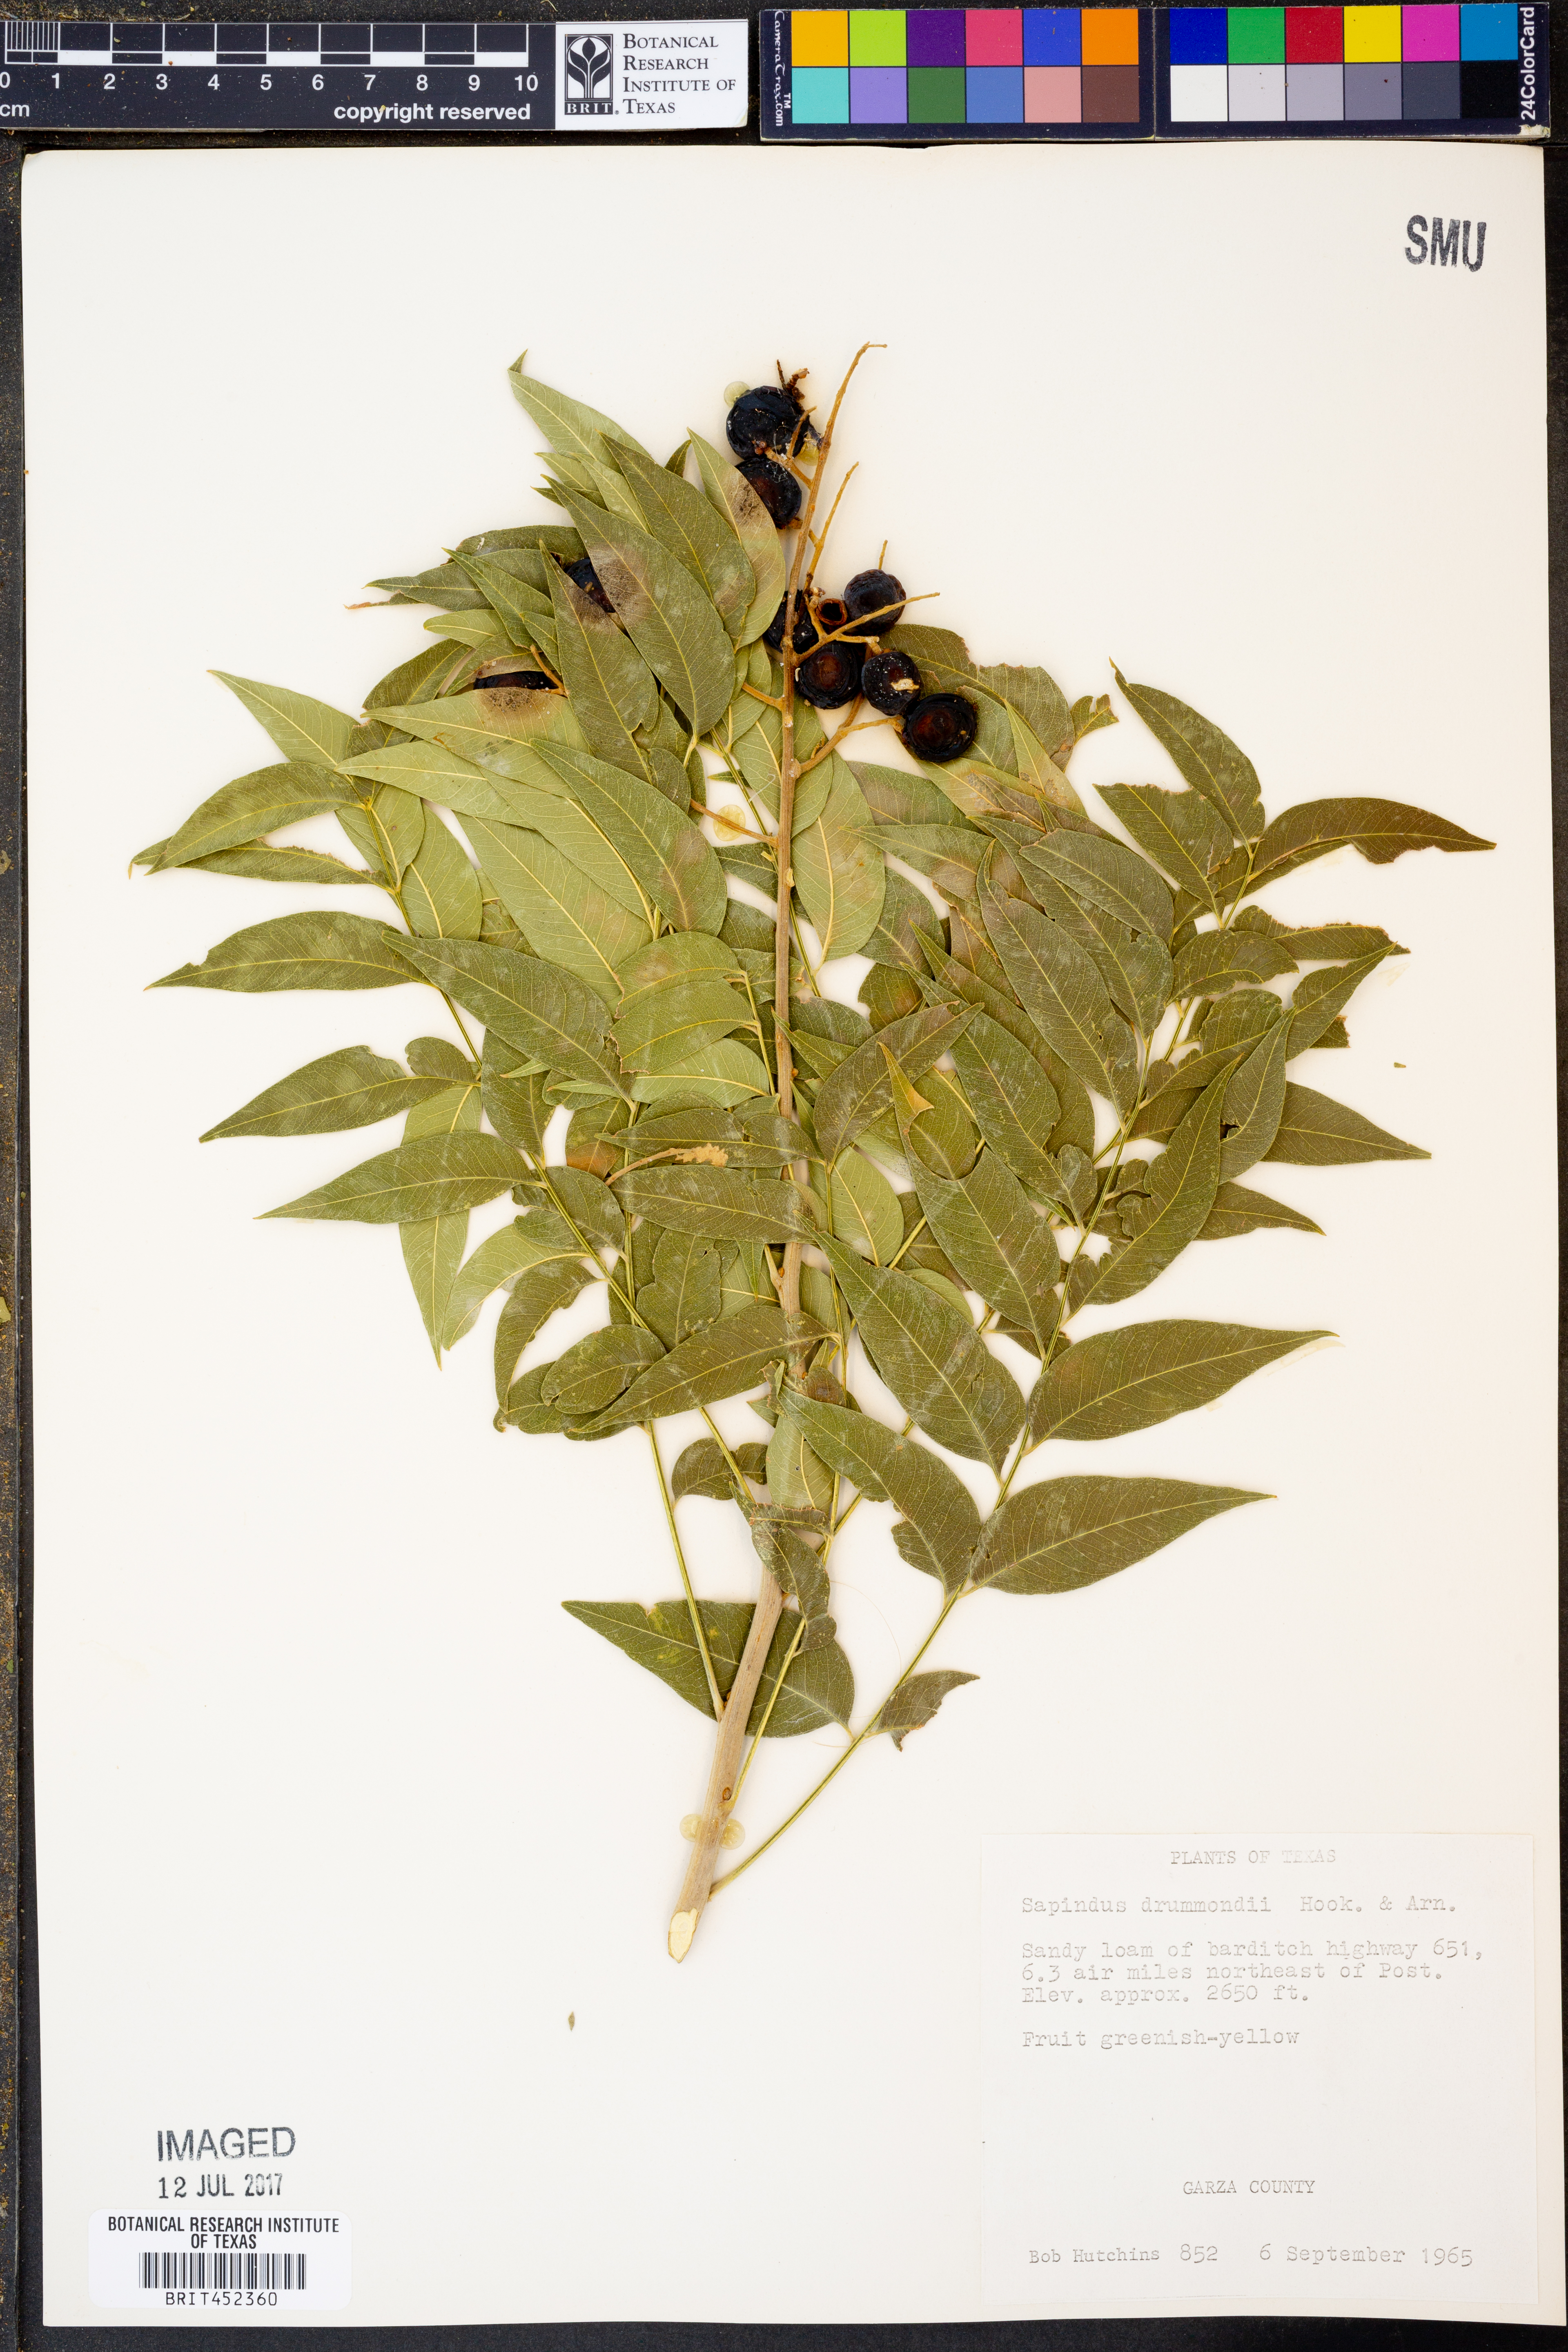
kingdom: Plantae
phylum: Tracheophyta
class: Magnoliopsida
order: Sapindales
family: Sapindaceae
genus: Sapindus
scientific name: Sapindus drummondii
